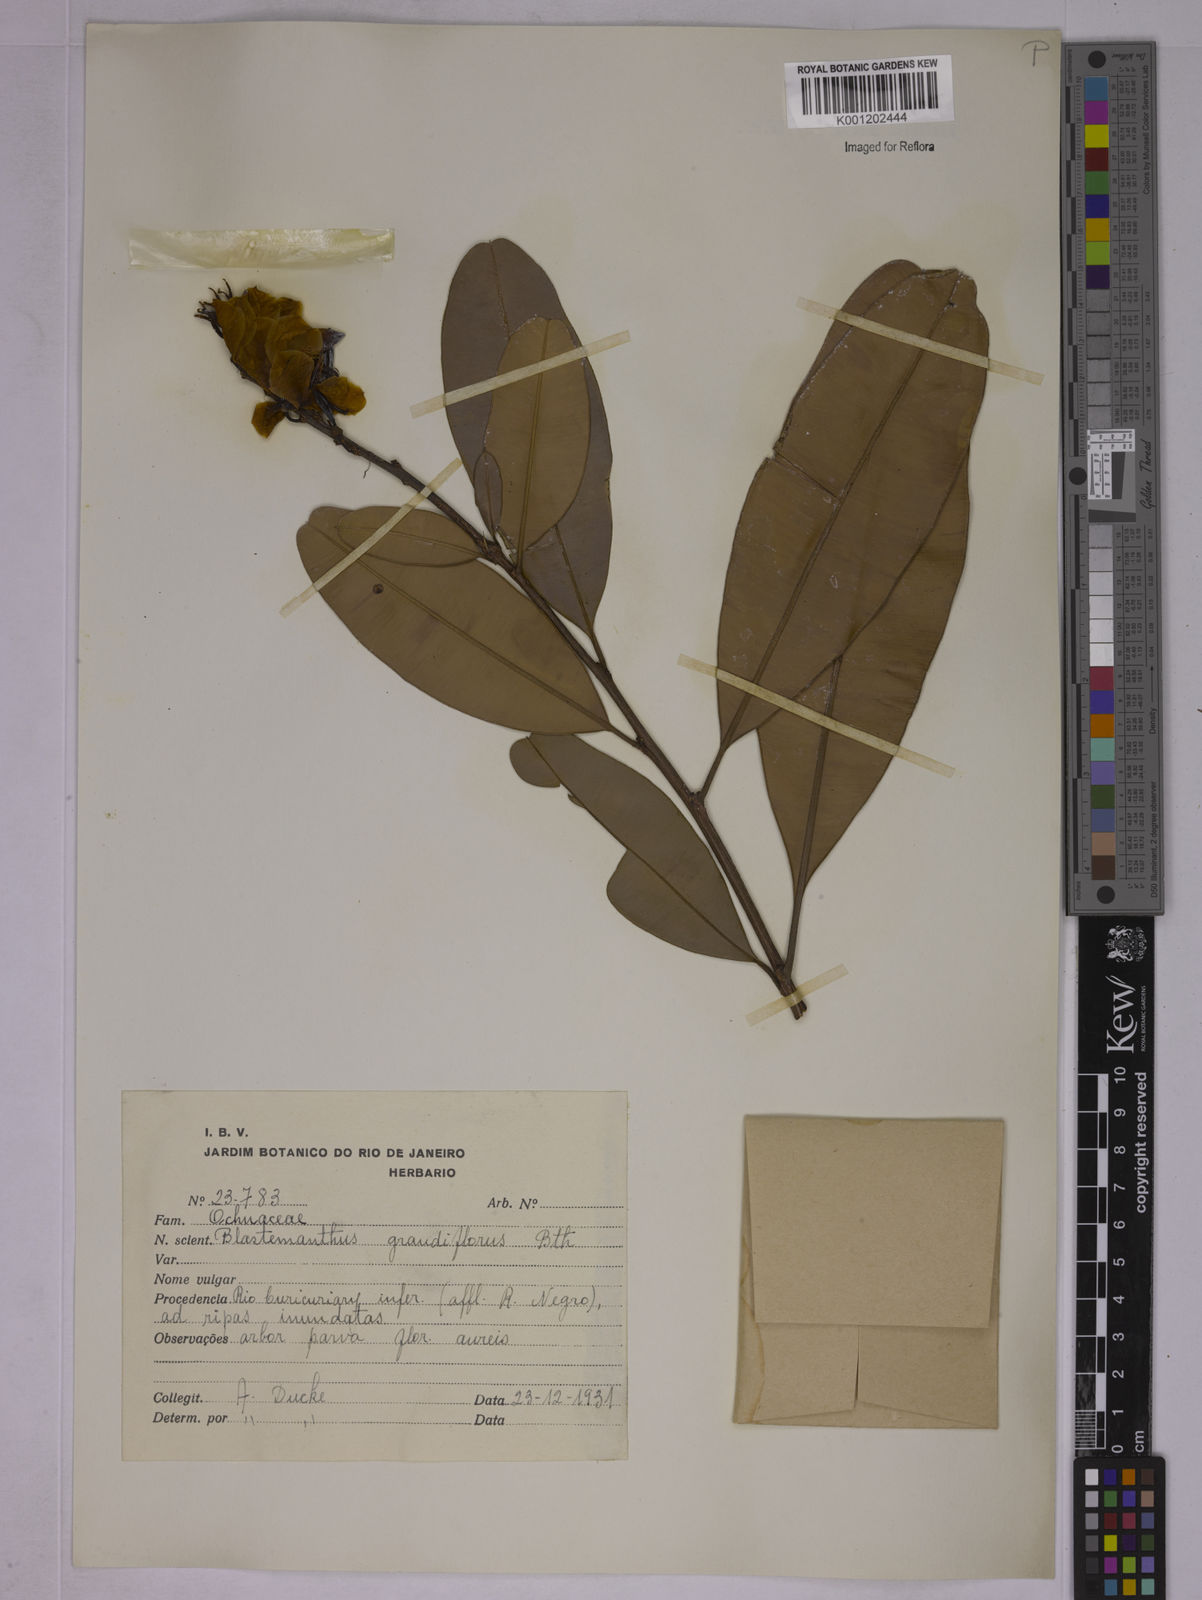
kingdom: Plantae
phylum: Tracheophyta
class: Magnoliopsida
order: Malpighiales
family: Ochnaceae
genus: Blastemanthus
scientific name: Blastemanthus grandiflorus
